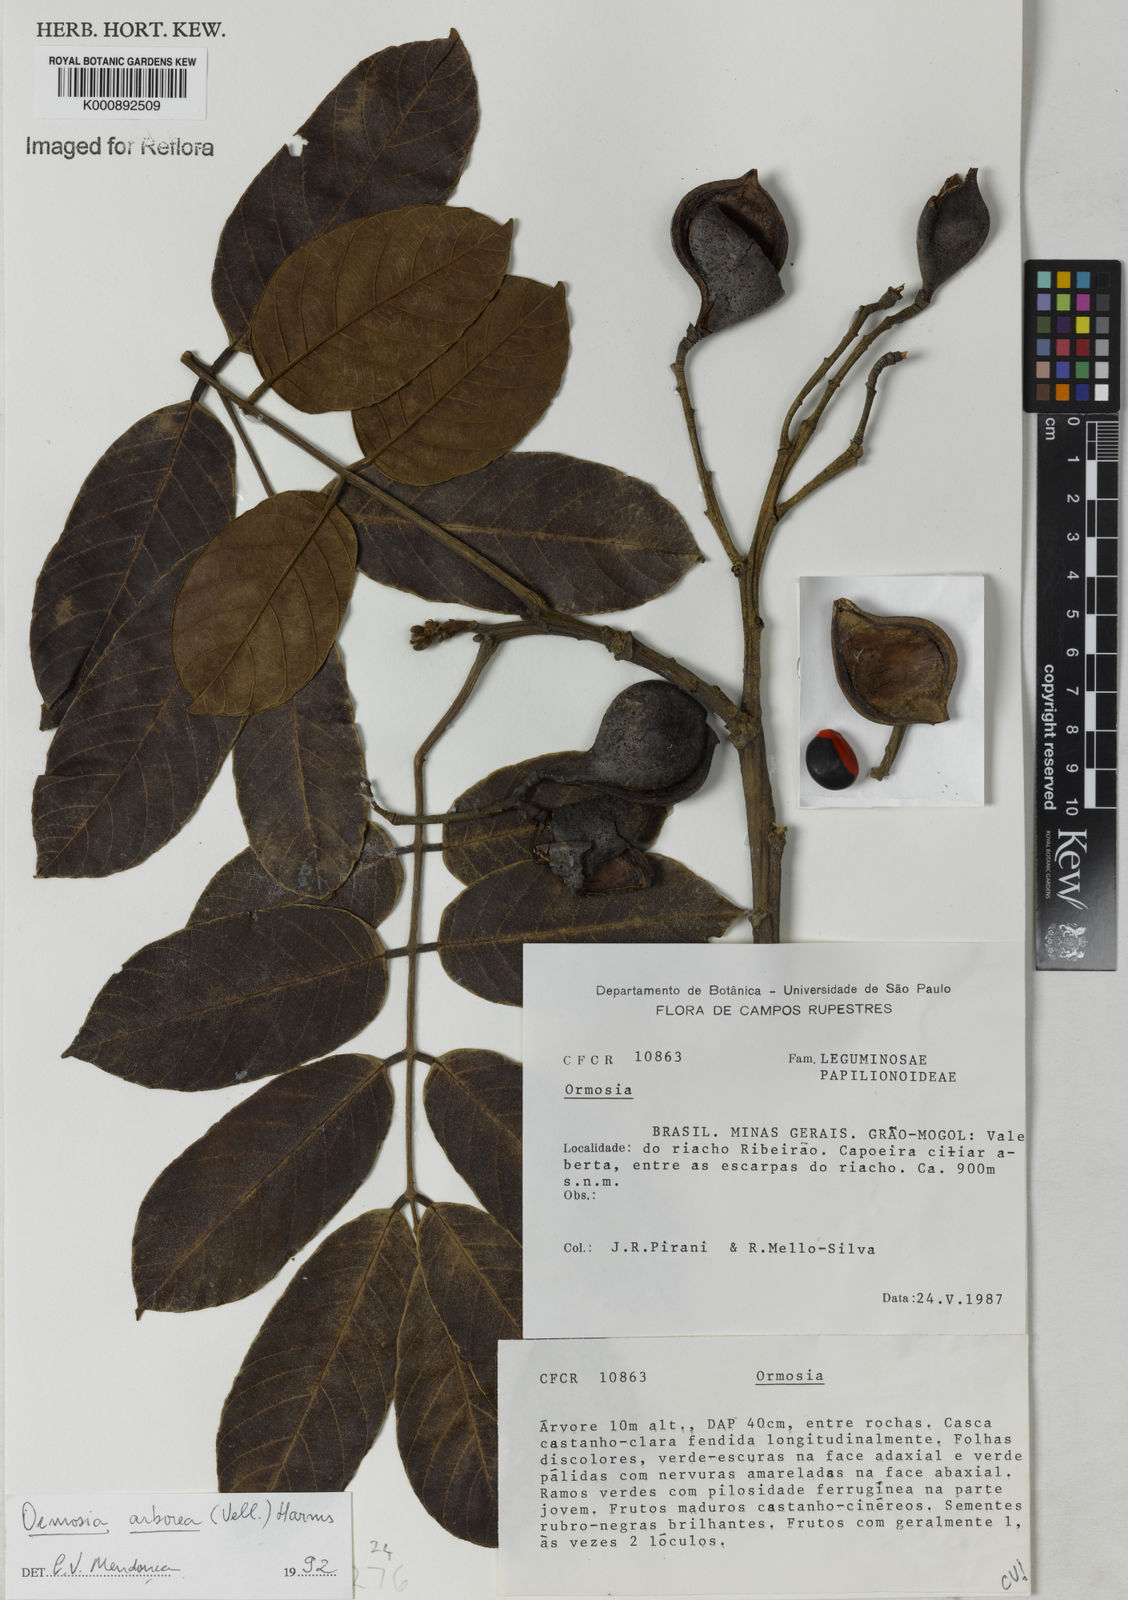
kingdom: Plantae
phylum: Tracheophyta
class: Magnoliopsida
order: Fabales
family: Fabaceae
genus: Ormosia
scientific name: Ormosia arborea
